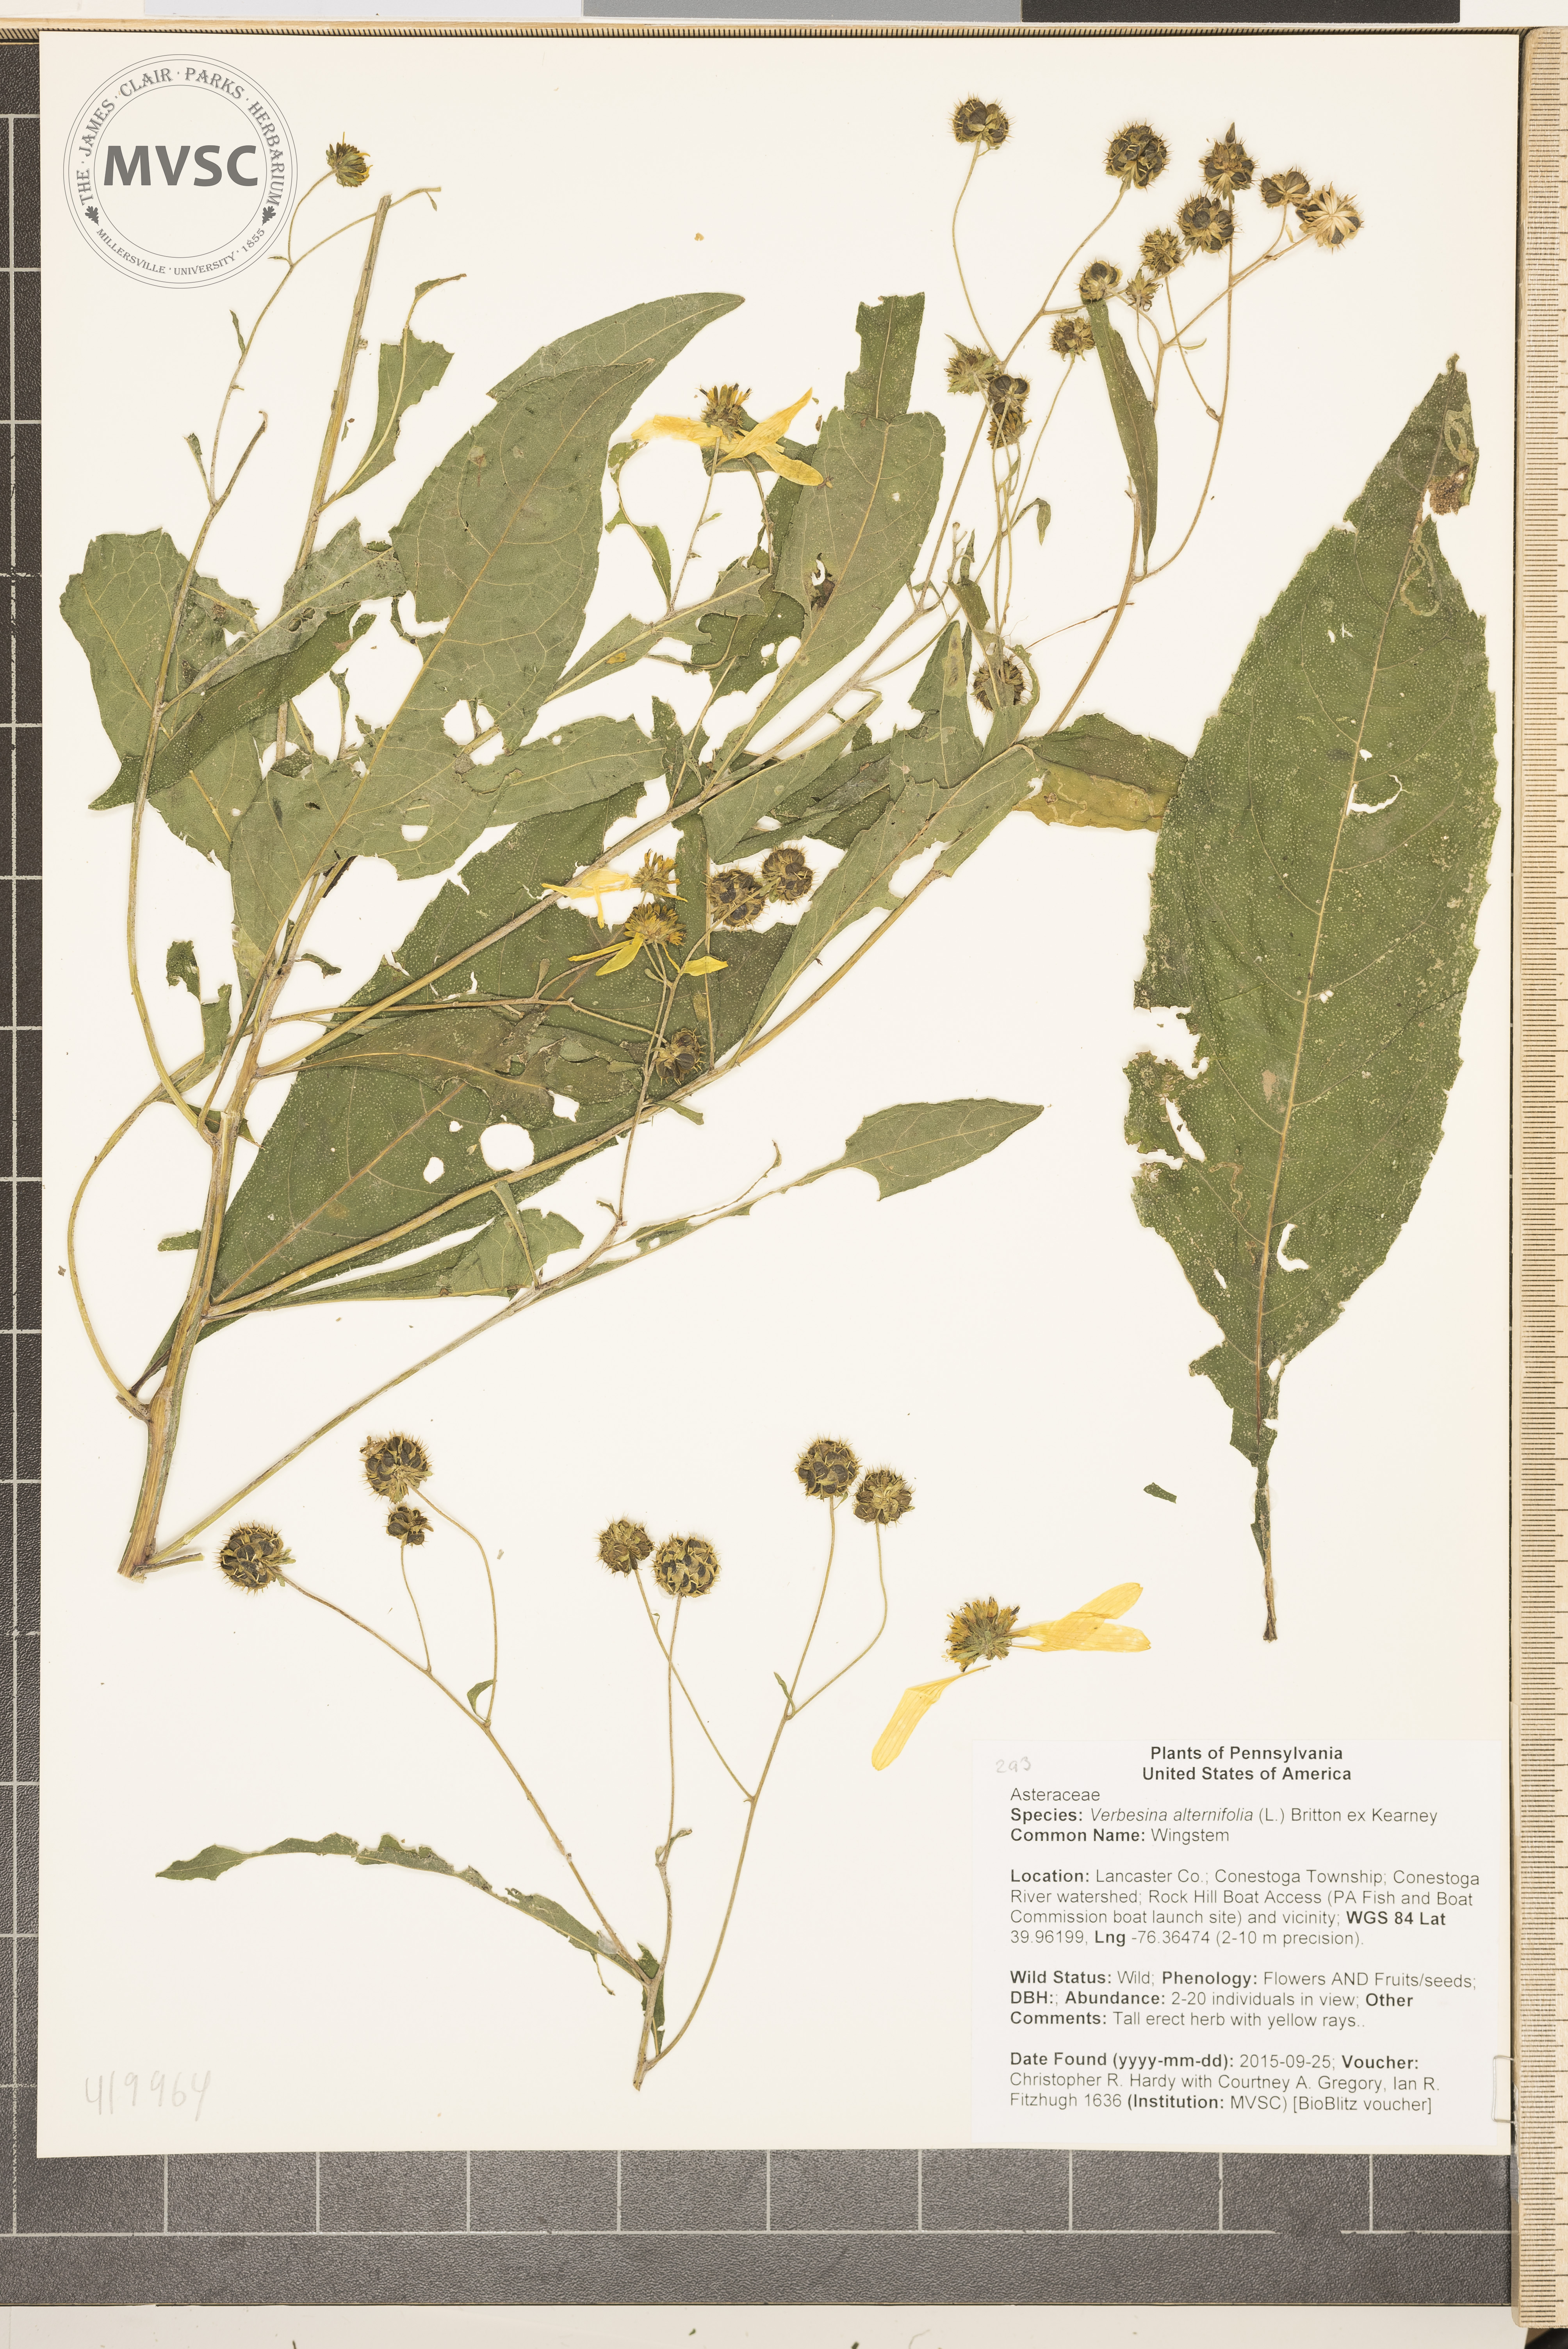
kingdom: Plantae
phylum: Tracheophyta
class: Magnoliopsida
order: Asterales
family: Asteraceae
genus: Verbesina
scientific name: Verbesina alternifolia
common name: Wingstem
